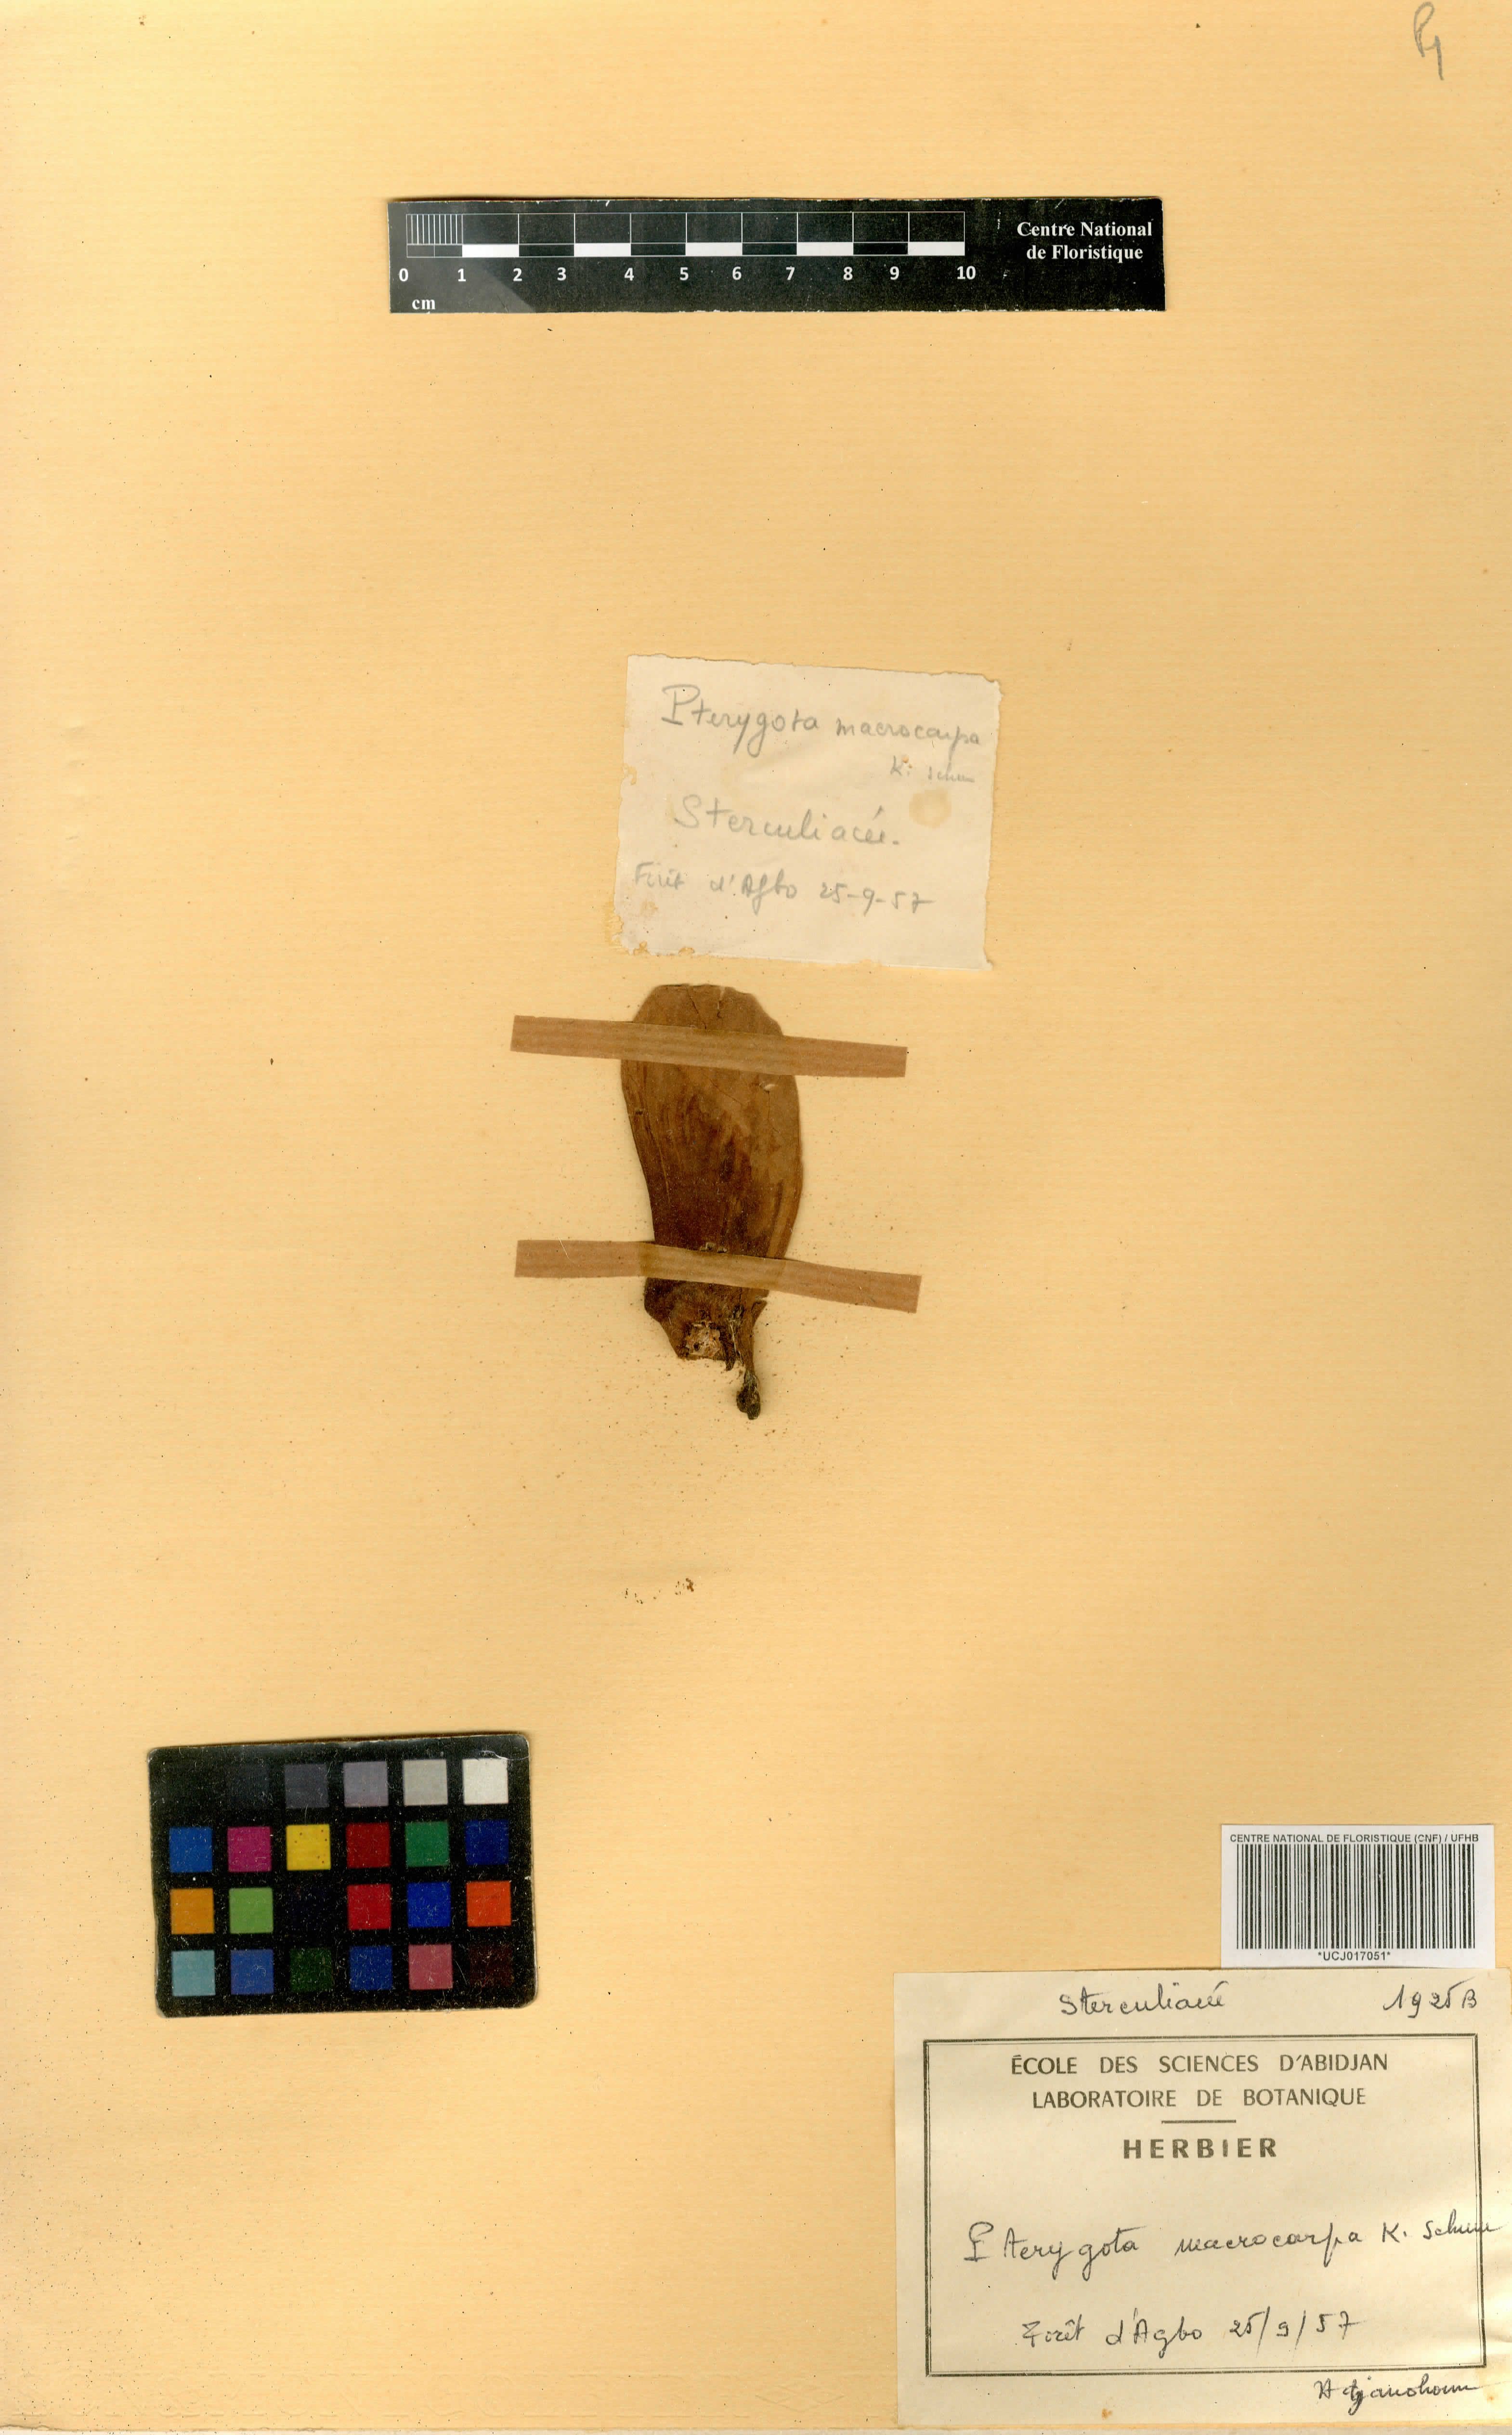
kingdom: Plantae
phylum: Tracheophyta
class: Magnoliopsida
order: Malvales
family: Malvaceae
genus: Pterygota
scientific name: Pterygota macrocarpa
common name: African pterygota
